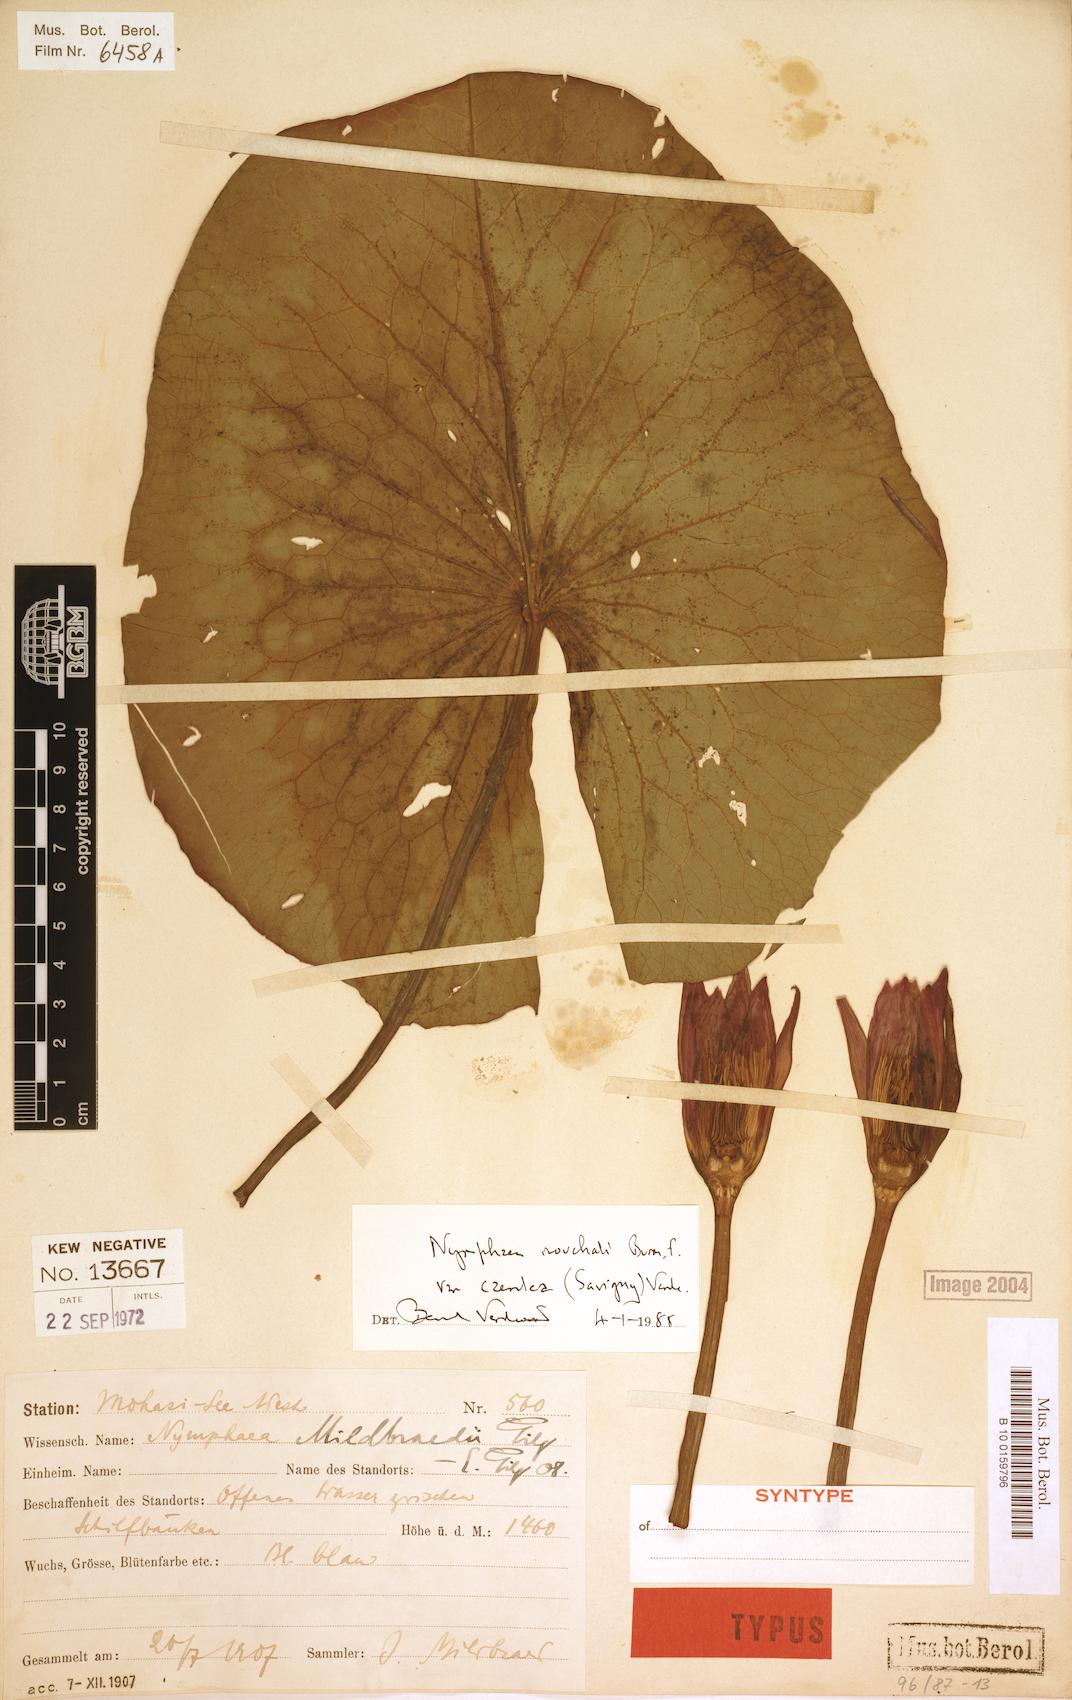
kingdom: Plantae
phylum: Tracheophyta
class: Magnoliopsida
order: Nymphaeales
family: Nymphaeaceae
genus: Nymphaea
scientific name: Nymphaea nouchali
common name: Blue lotus
